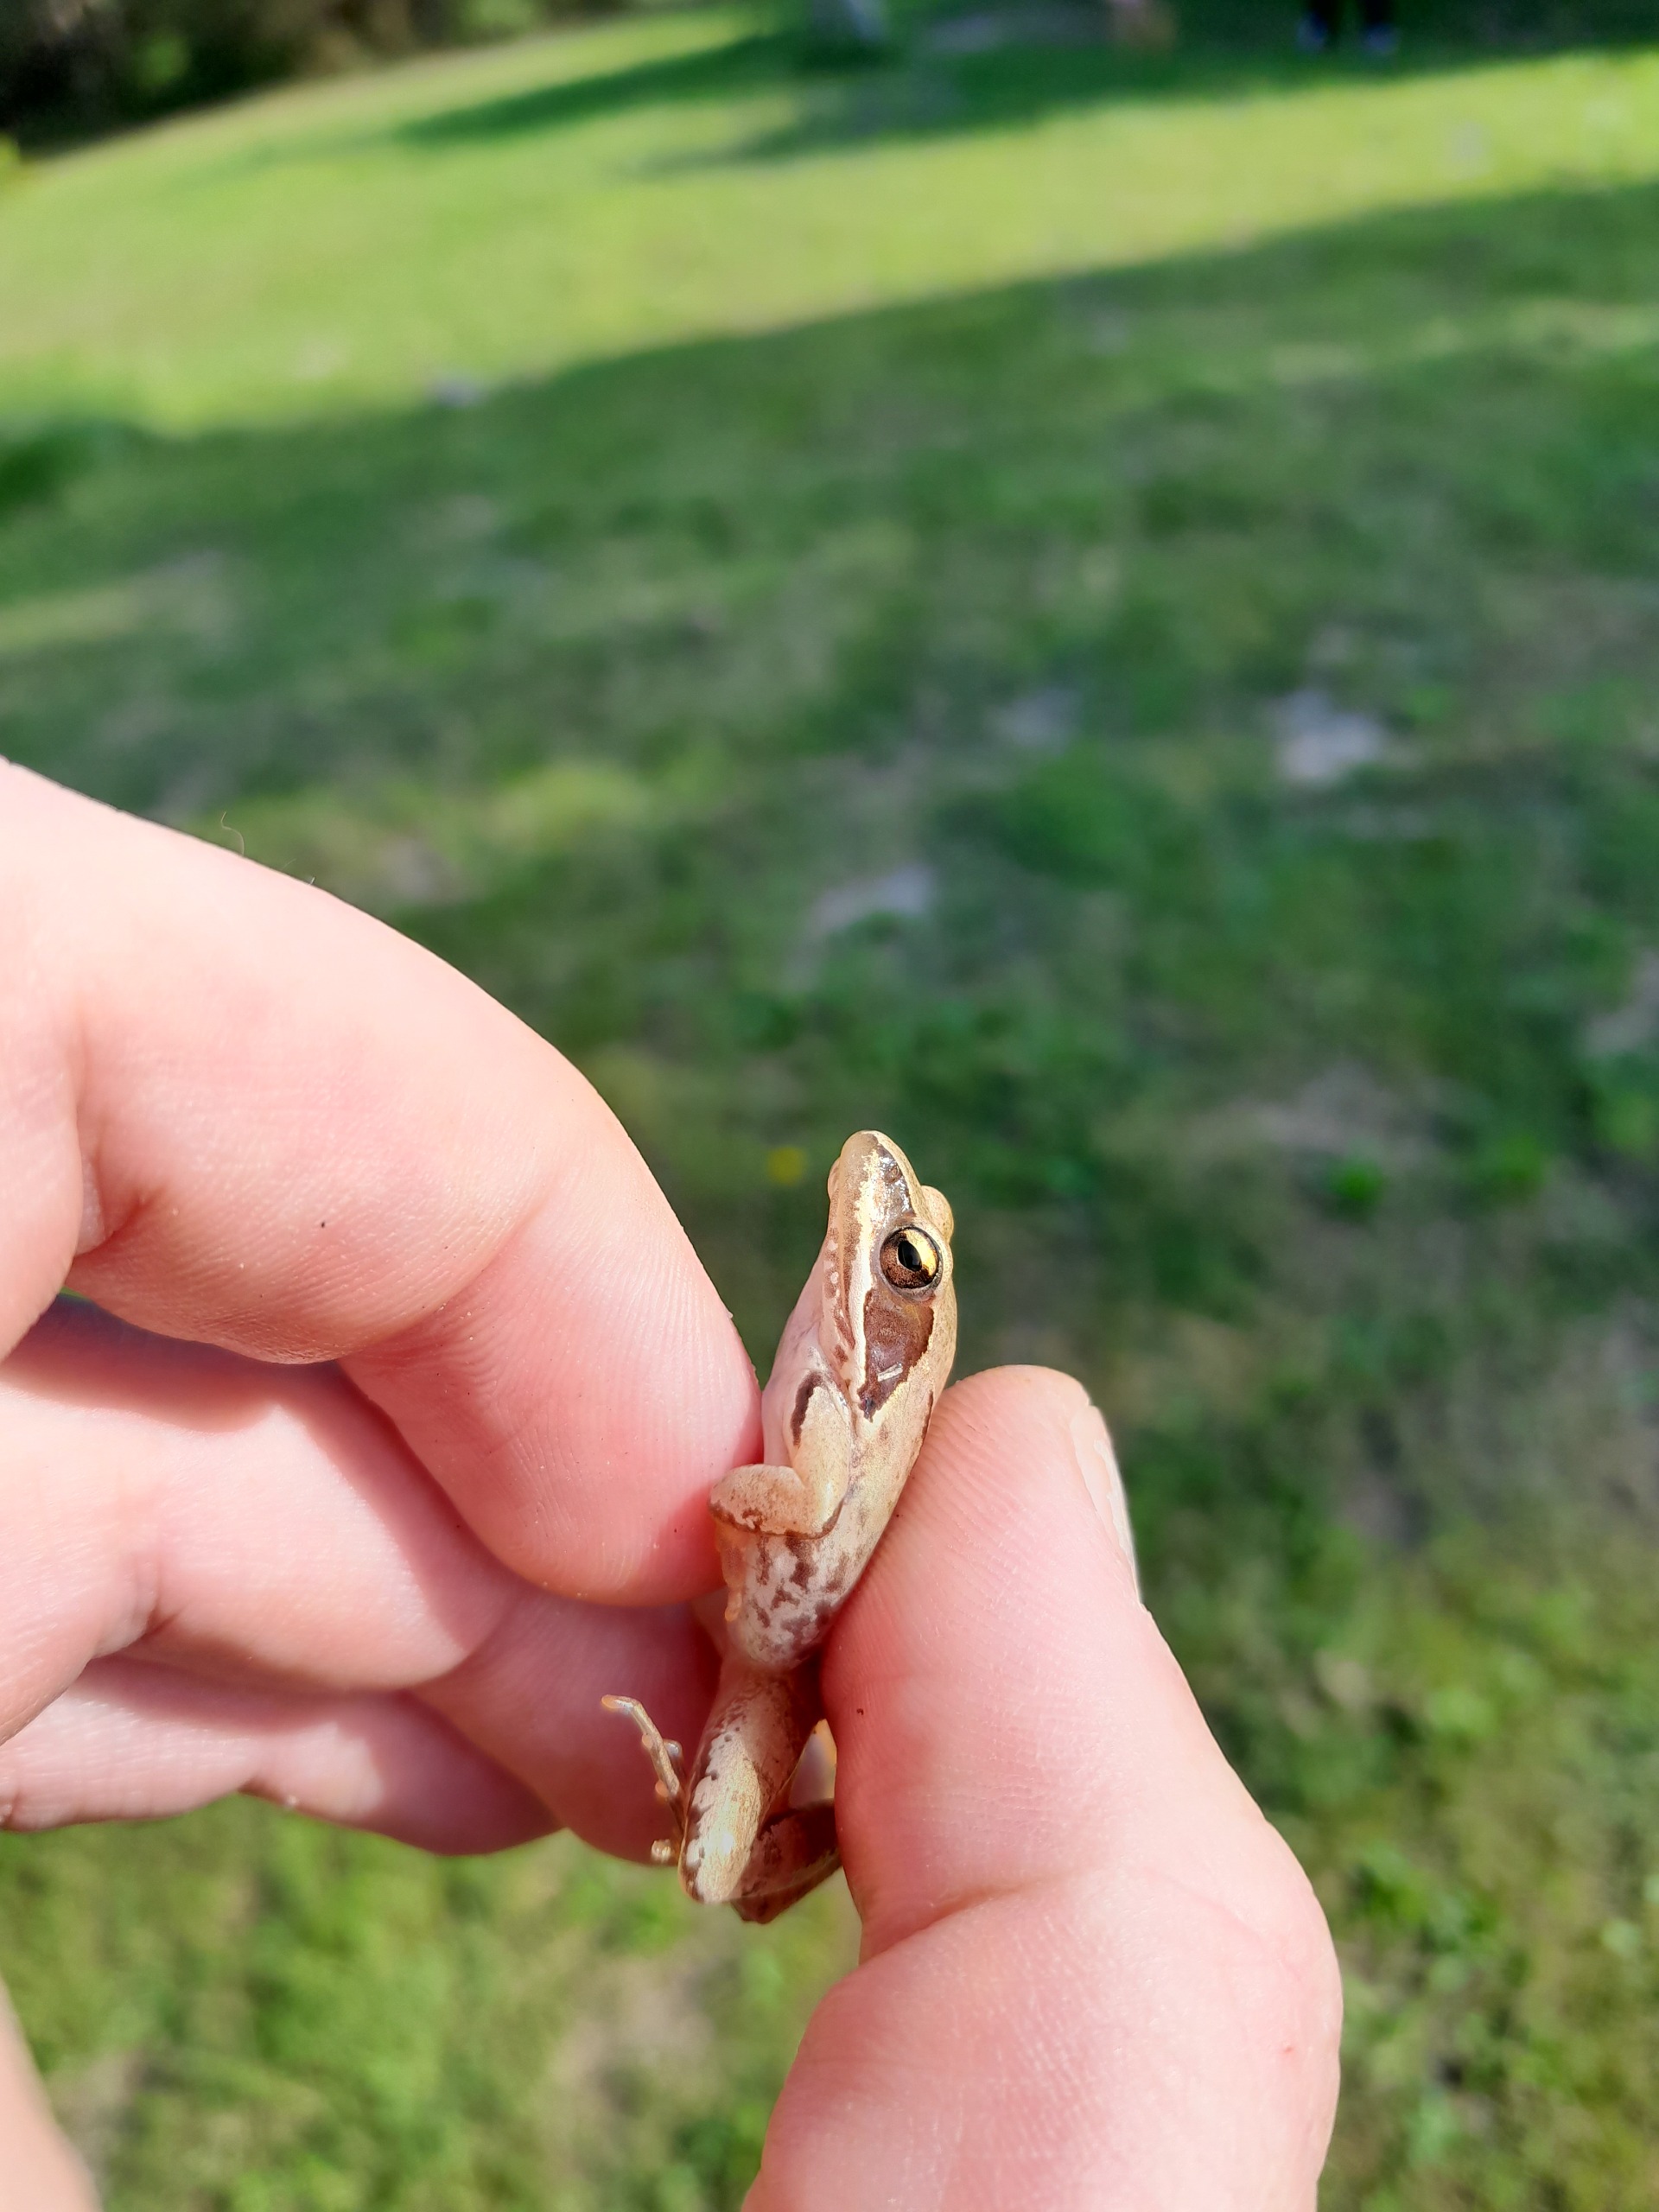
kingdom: Animalia
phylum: Chordata
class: Amphibia
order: Anura
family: Ranidae
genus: Rana
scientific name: Rana dalmatina
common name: Springfrø
